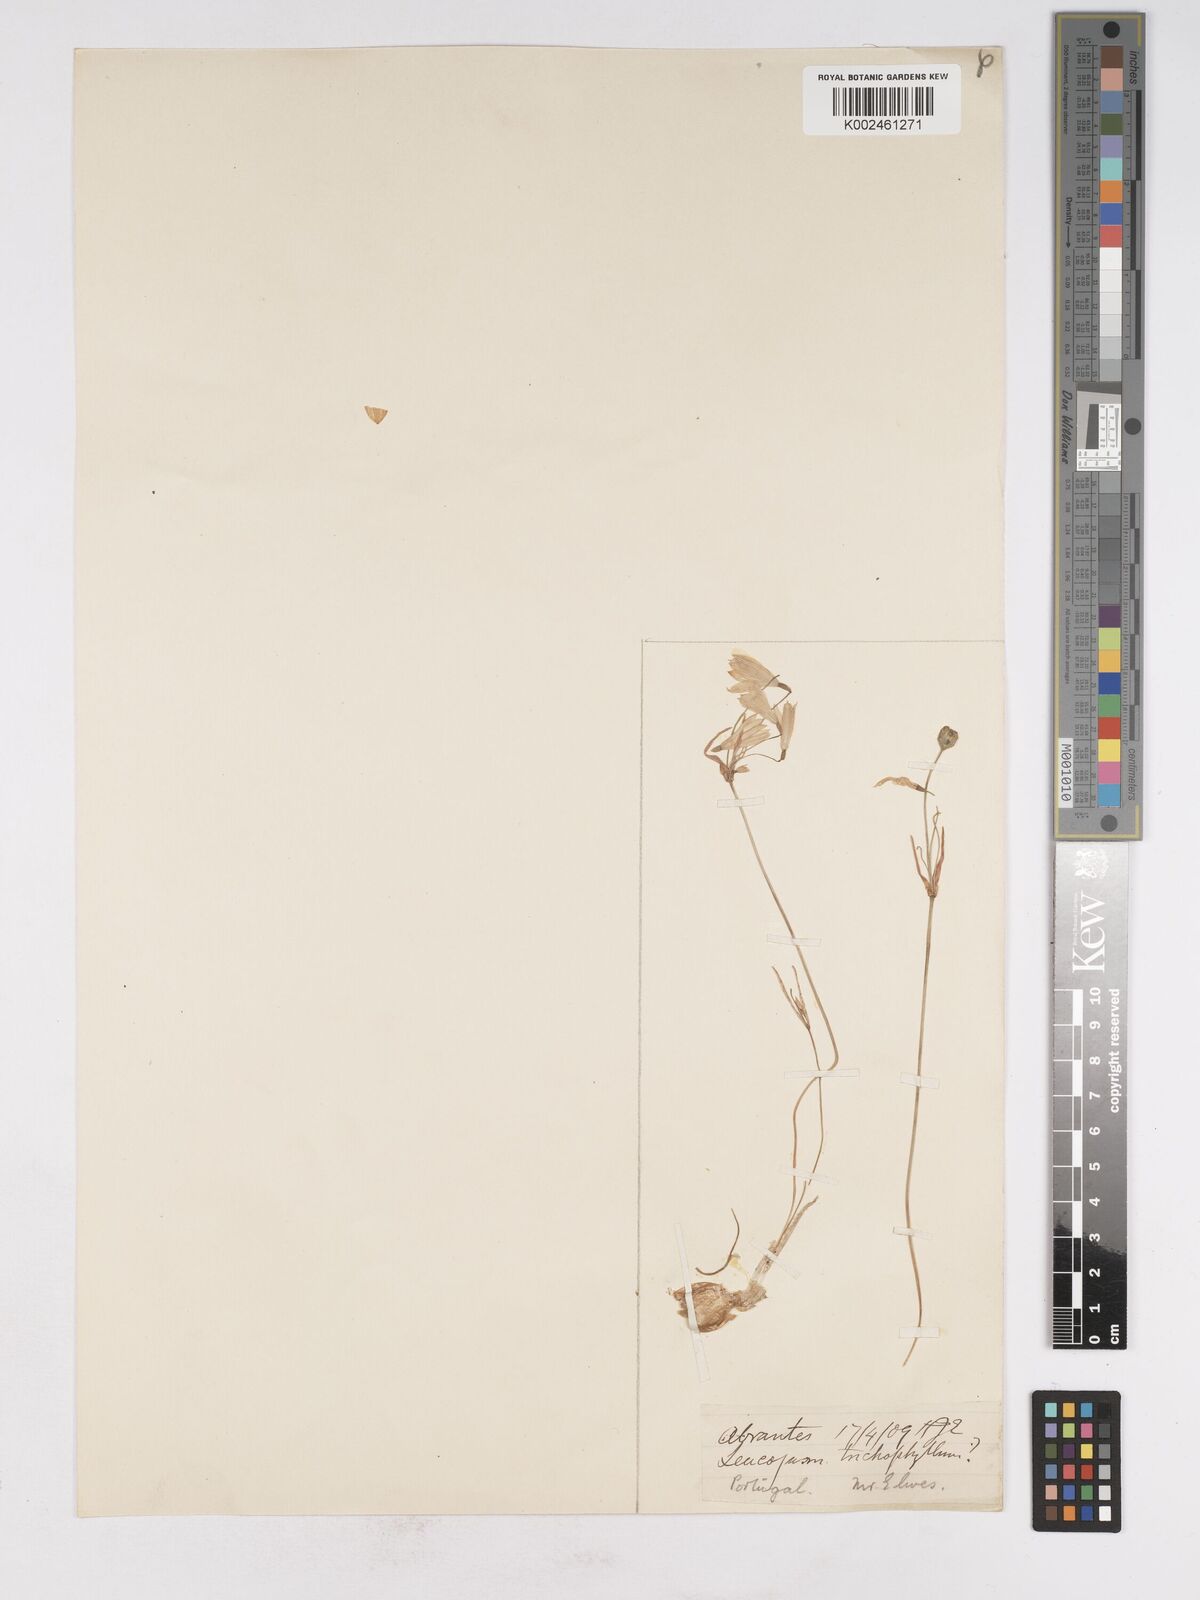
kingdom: Plantae
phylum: Tracheophyta
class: Liliopsida
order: Asparagales
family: Amaryllidaceae
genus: Acis
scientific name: Acis trichophylla
